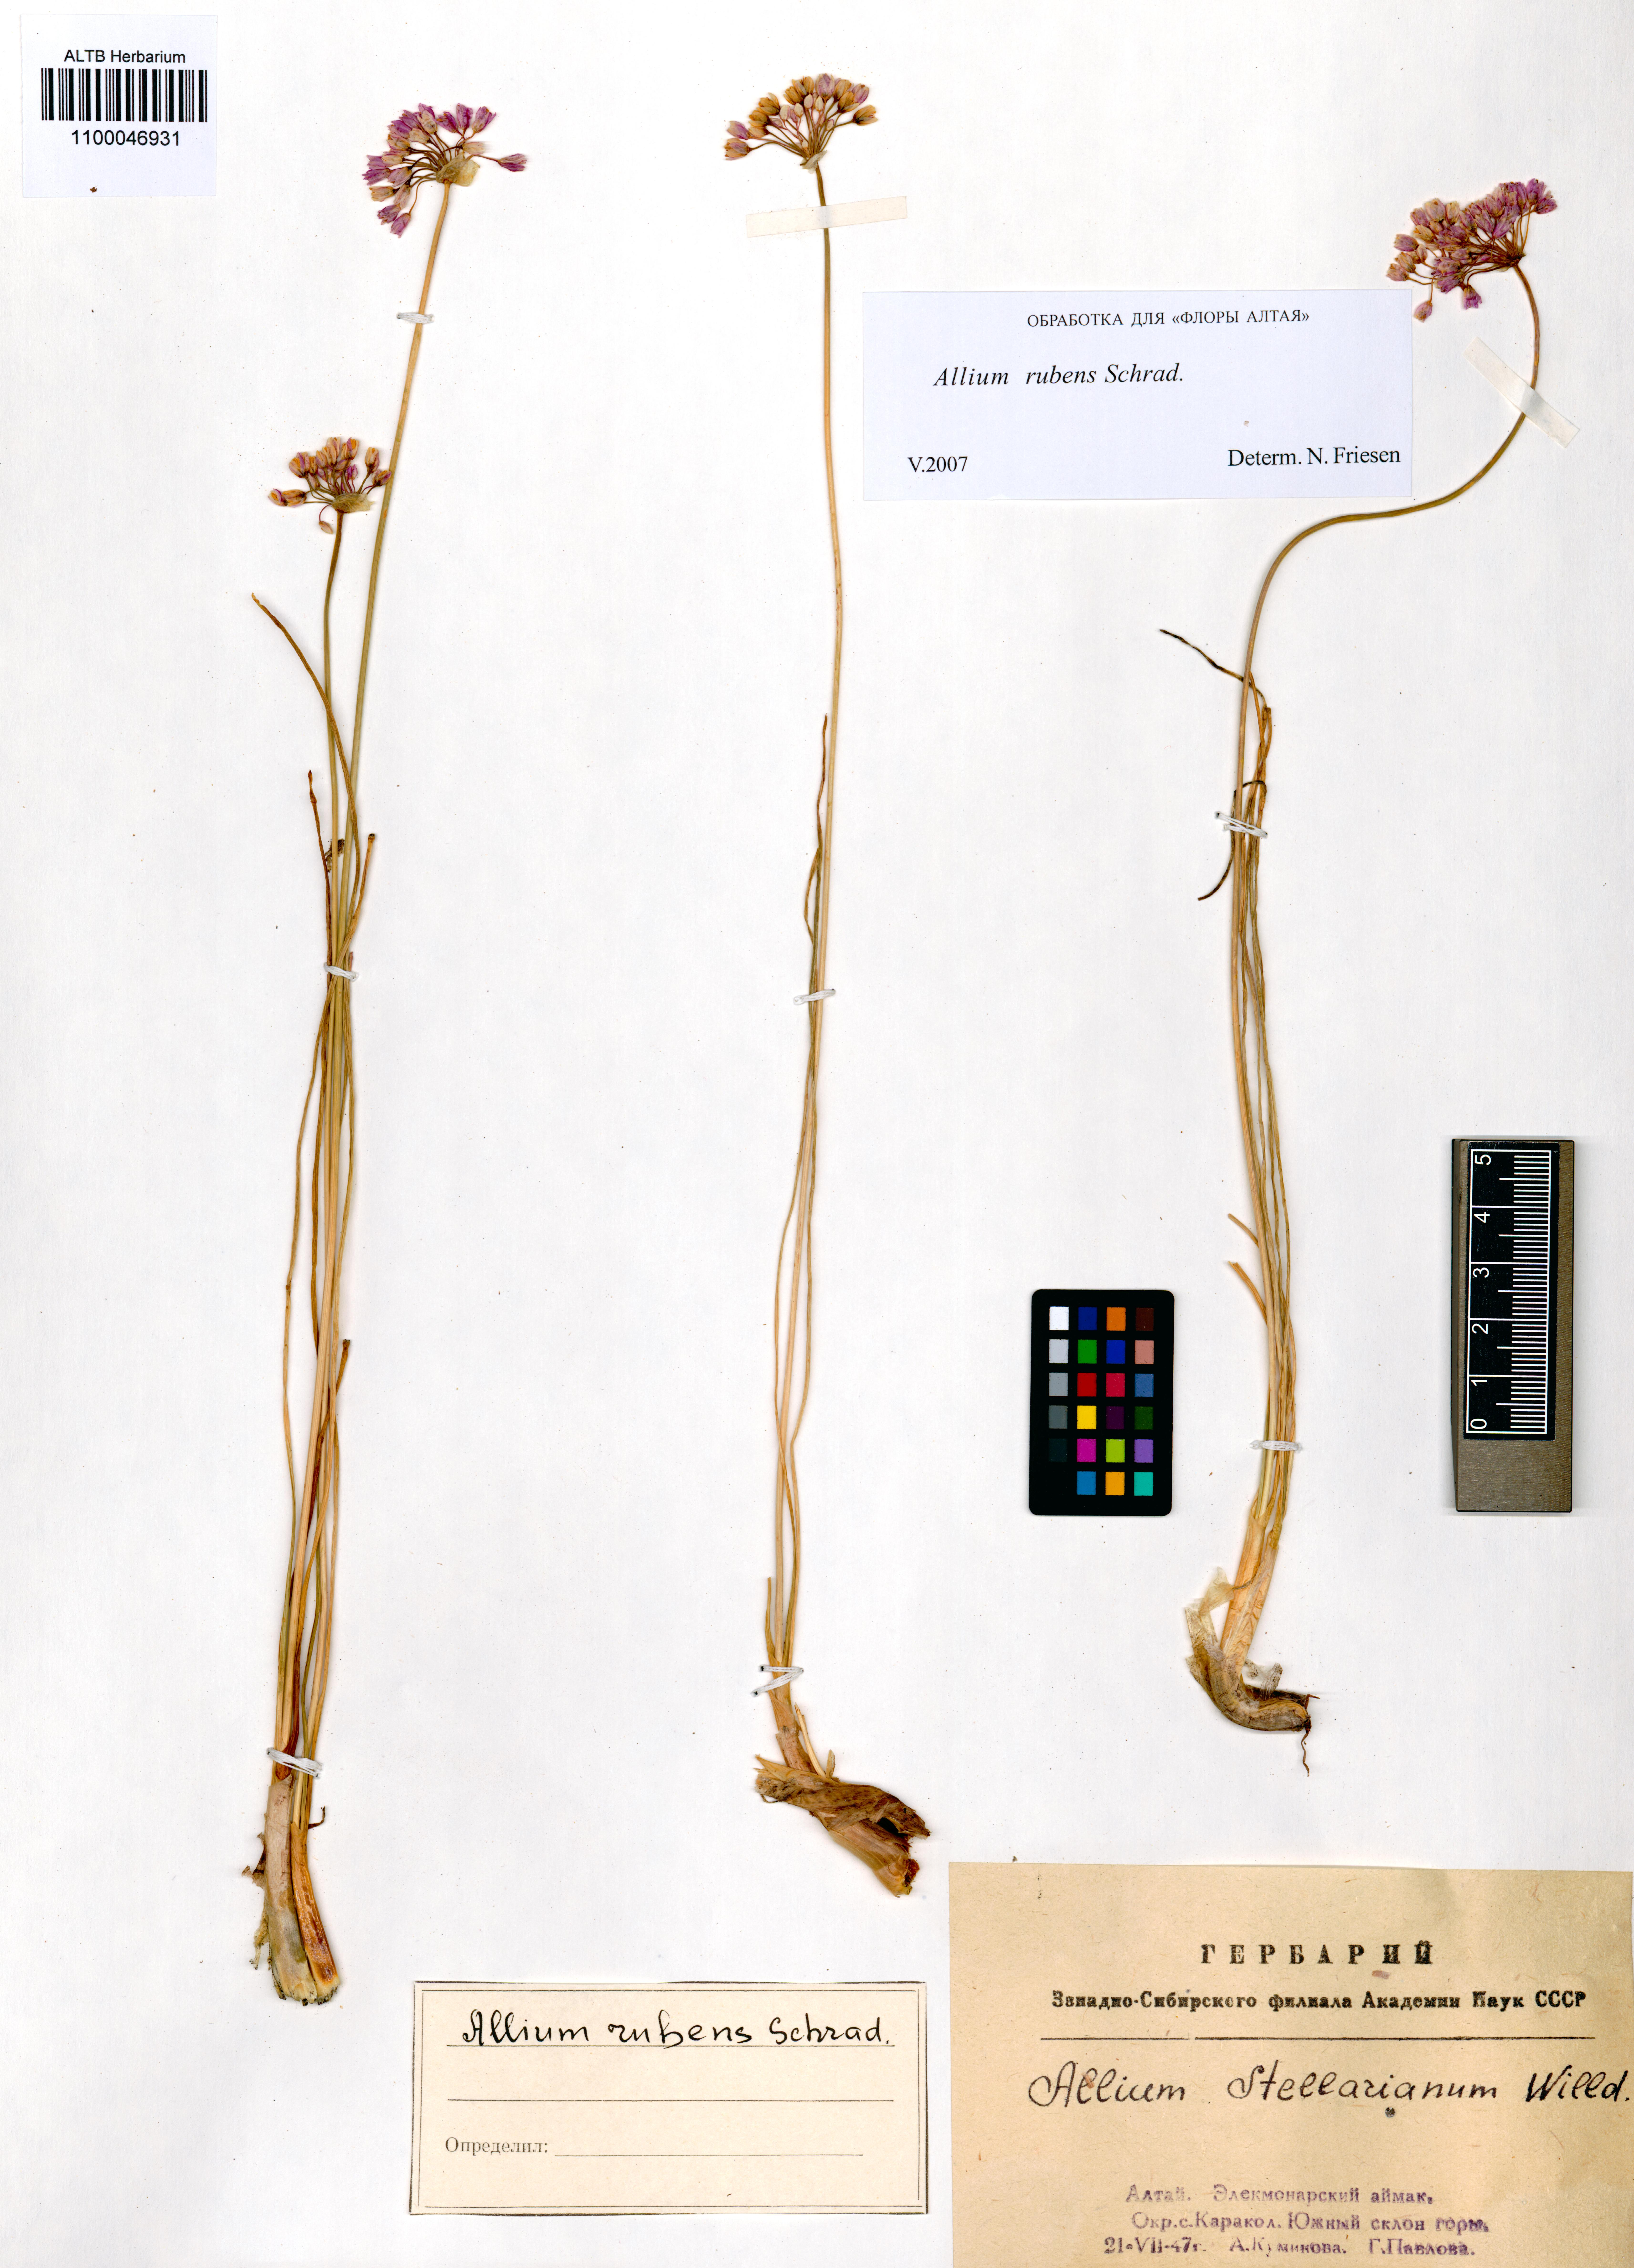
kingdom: Plantae
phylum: Tracheophyta
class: Liliopsida
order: Asparagales
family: Amaryllidaceae
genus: Allium
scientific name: Allium rubens
